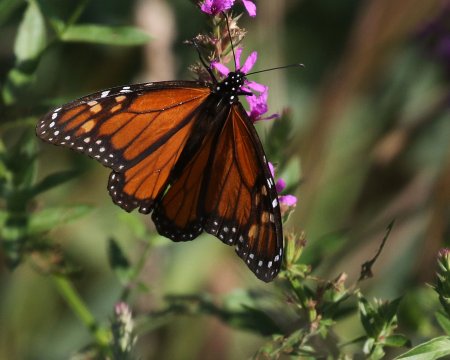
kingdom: Animalia
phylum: Arthropoda
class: Insecta
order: Lepidoptera
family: Nymphalidae
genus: Danaus
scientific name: Danaus plexippus
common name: Monarch
